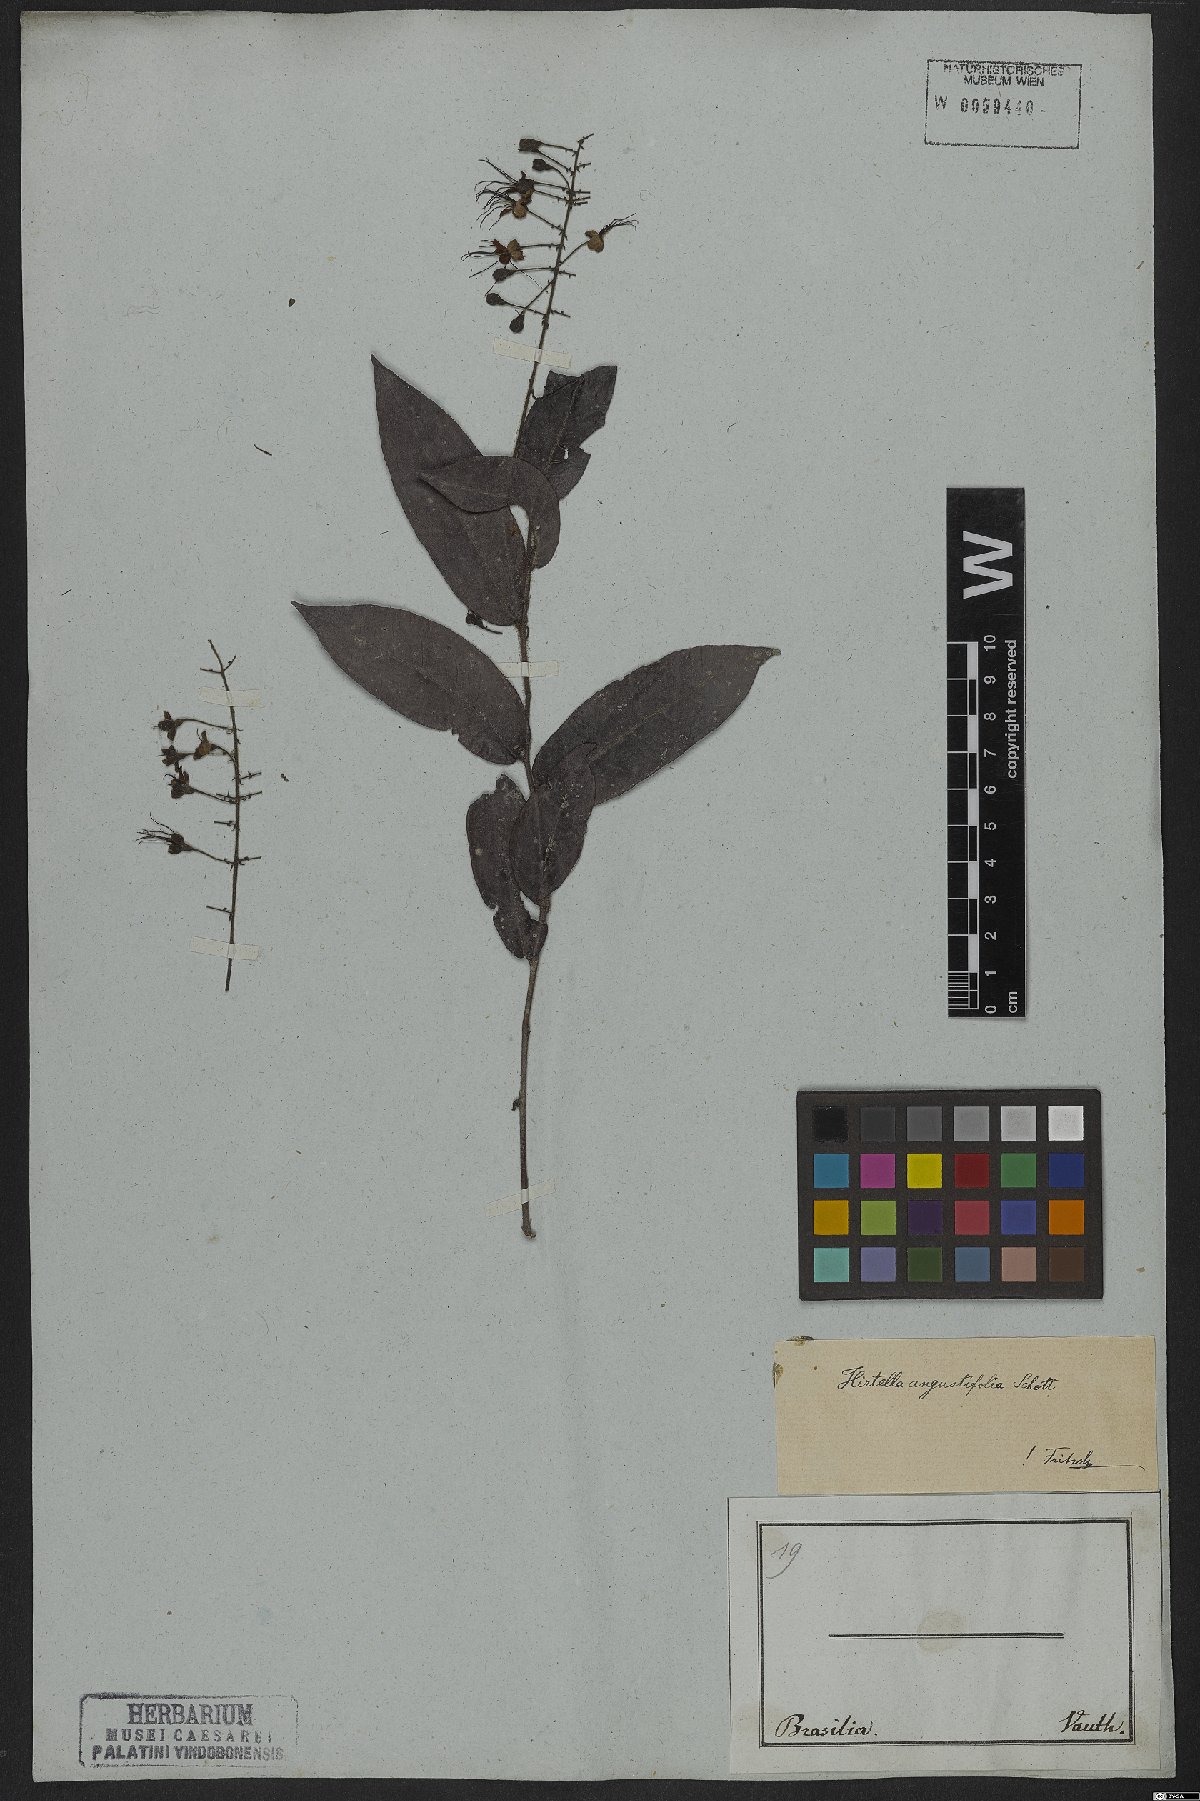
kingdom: Plantae
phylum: Tracheophyta
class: Magnoliopsida
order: Malpighiales
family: Chrysobalanaceae
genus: Hirtella
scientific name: Hirtella angustifolia
